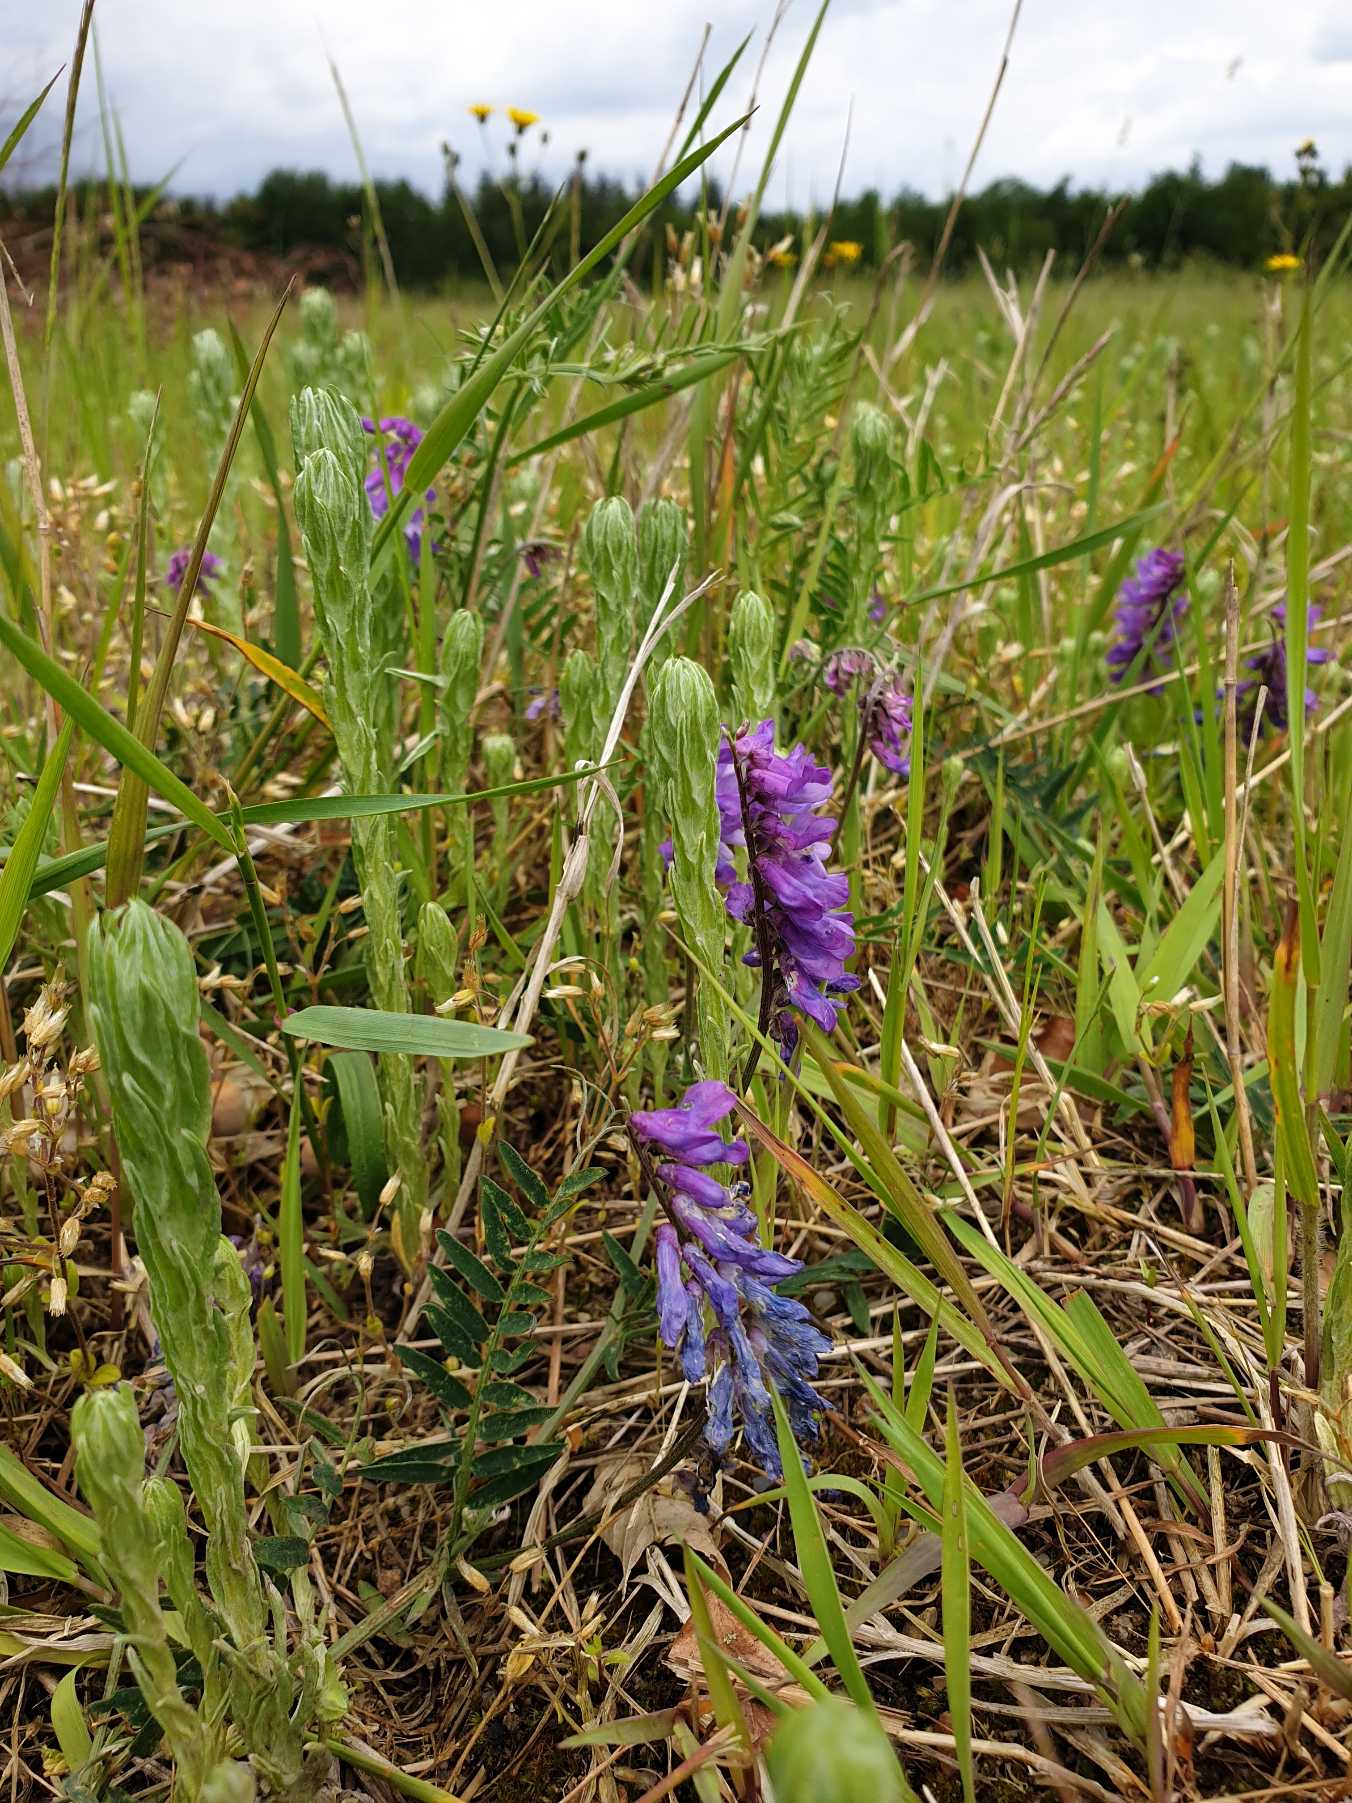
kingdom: Plantae
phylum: Tracheophyta
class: Magnoliopsida
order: Fabales
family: Fabaceae
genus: Vicia
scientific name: Vicia cracca
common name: Muse-vikke
